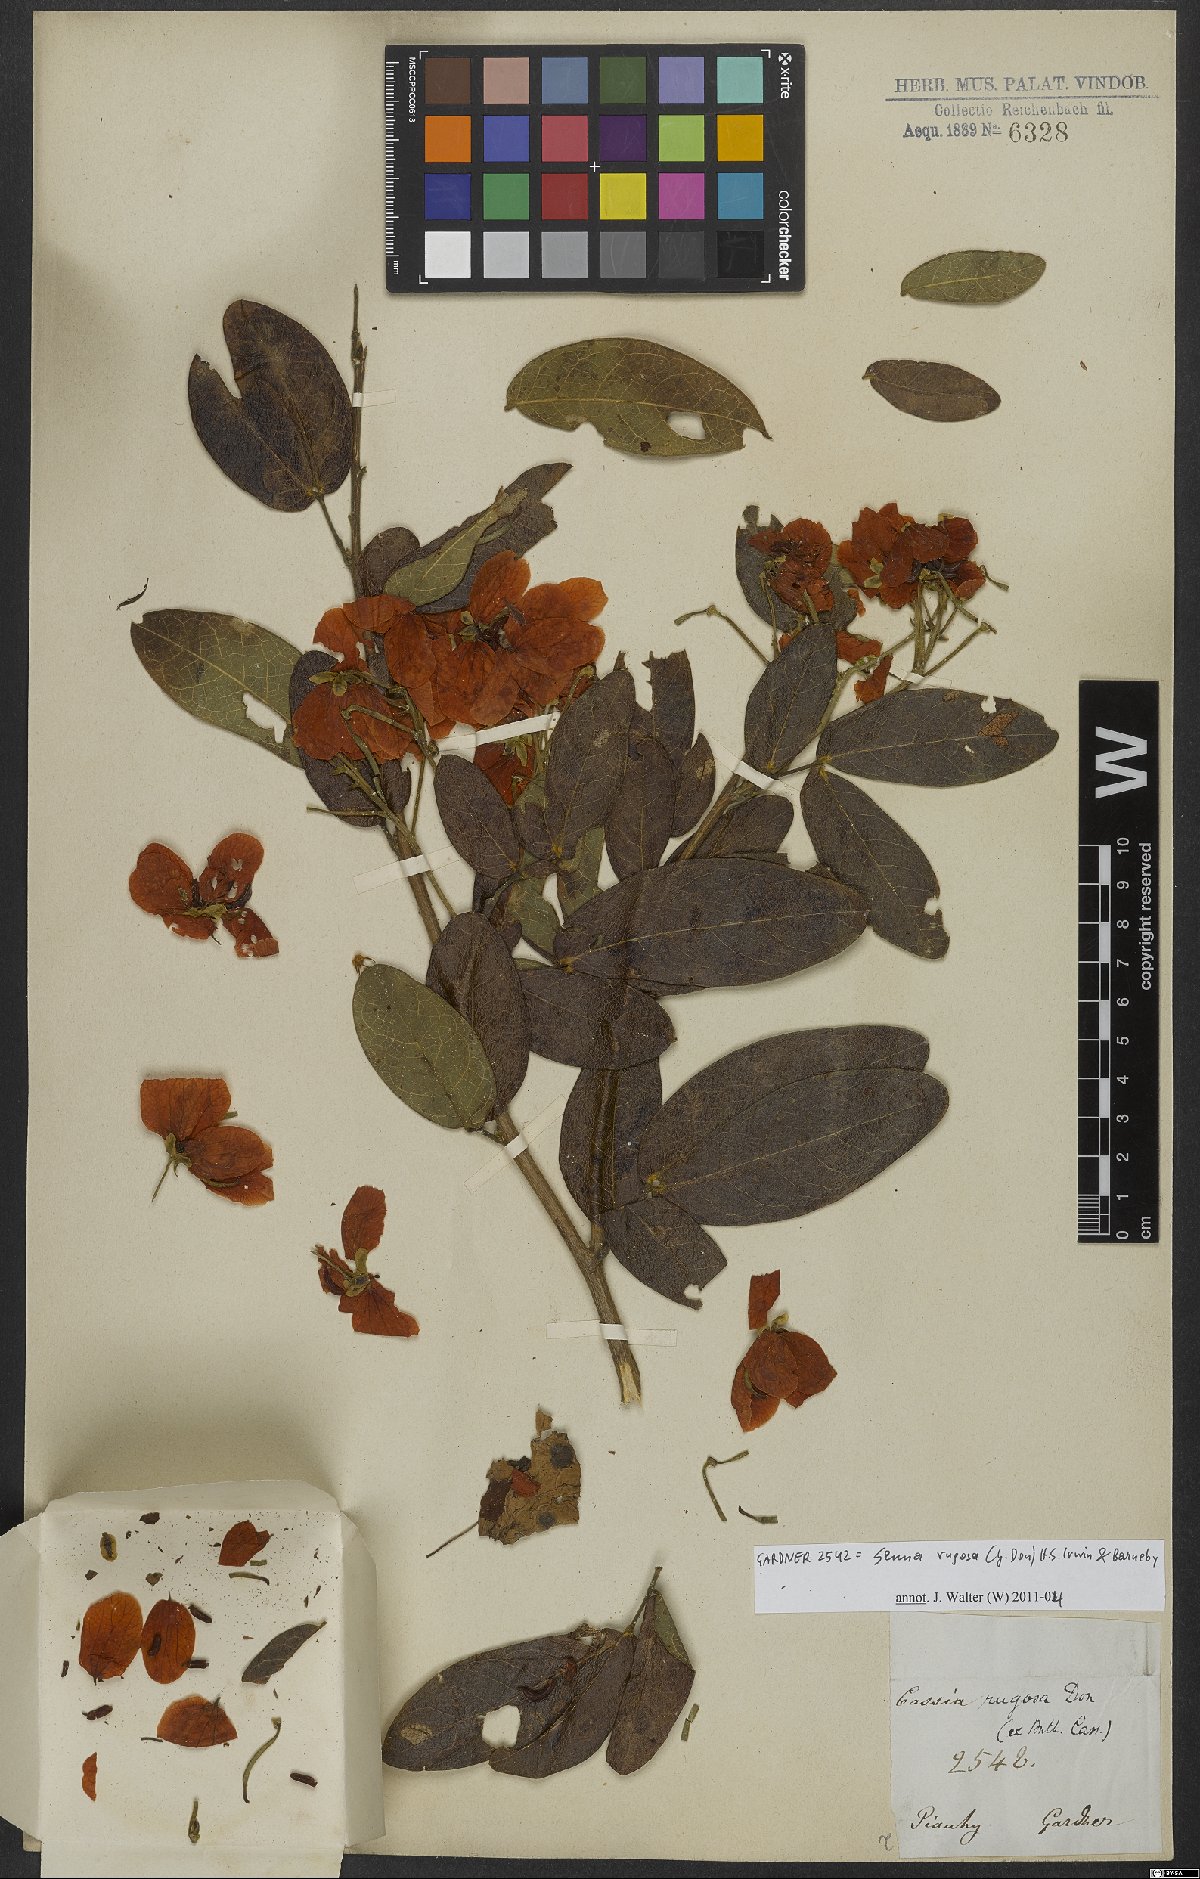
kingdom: Plantae
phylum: Tracheophyta
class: Magnoliopsida
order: Fabales
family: Fabaceae
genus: Senna
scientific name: Senna rugosa
